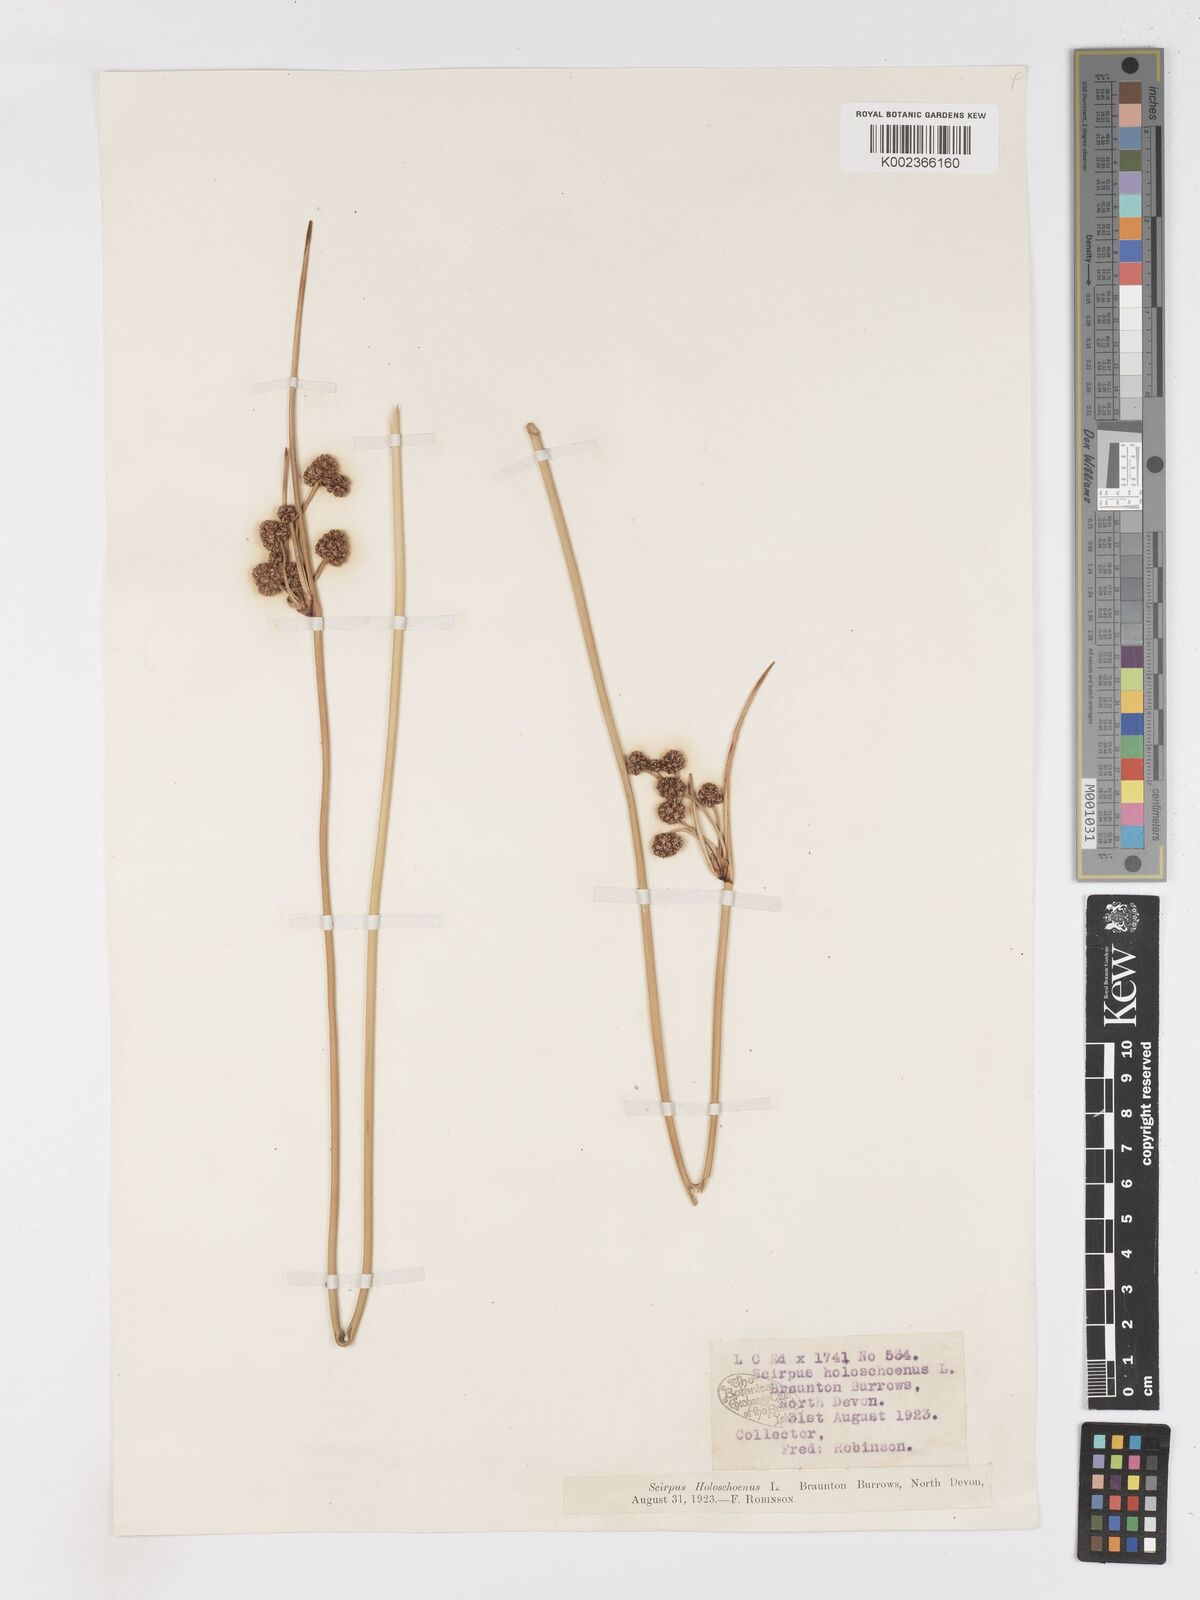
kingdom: Plantae
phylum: Tracheophyta
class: Liliopsida
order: Poales
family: Cyperaceae
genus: Scirpoides
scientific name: Scirpoides holoschoenus
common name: Round-headed club-rush
